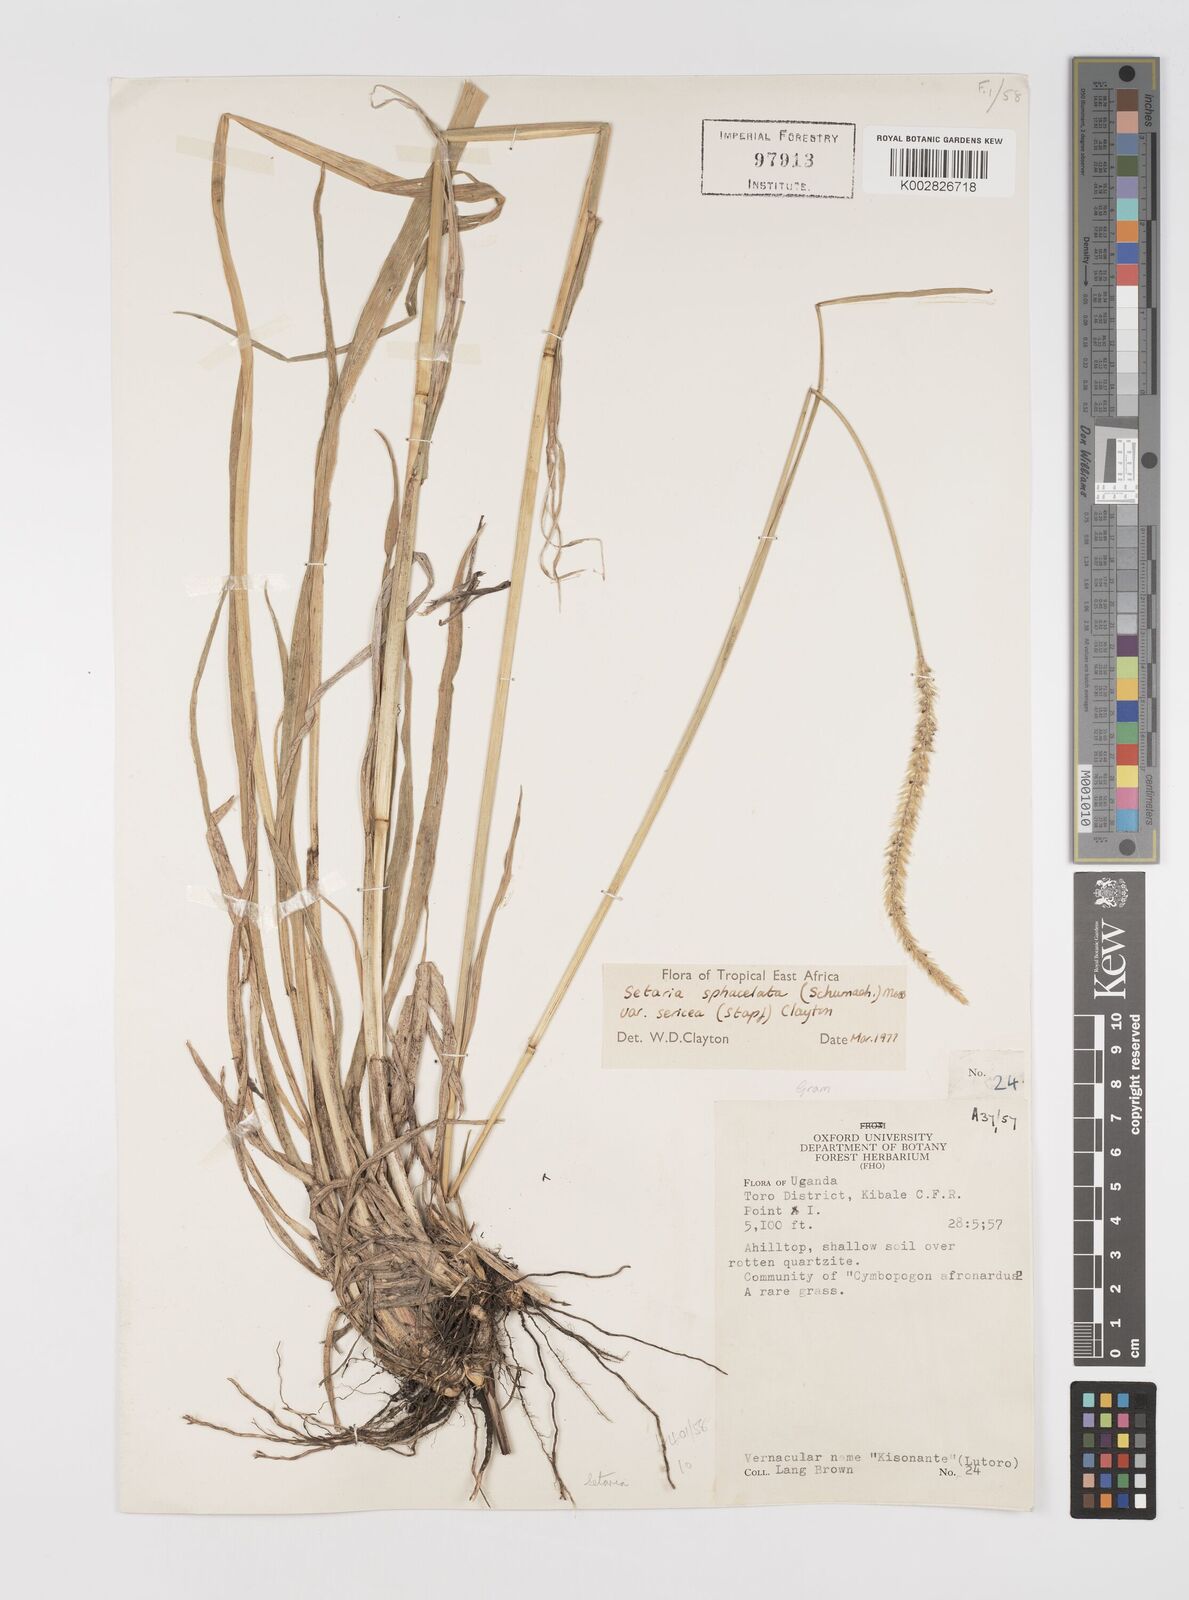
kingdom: Plantae
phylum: Tracheophyta
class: Liliopsida
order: Poales
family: Poaceae
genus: Setaria
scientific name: Setaria sphacelata
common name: African bristlegrass
